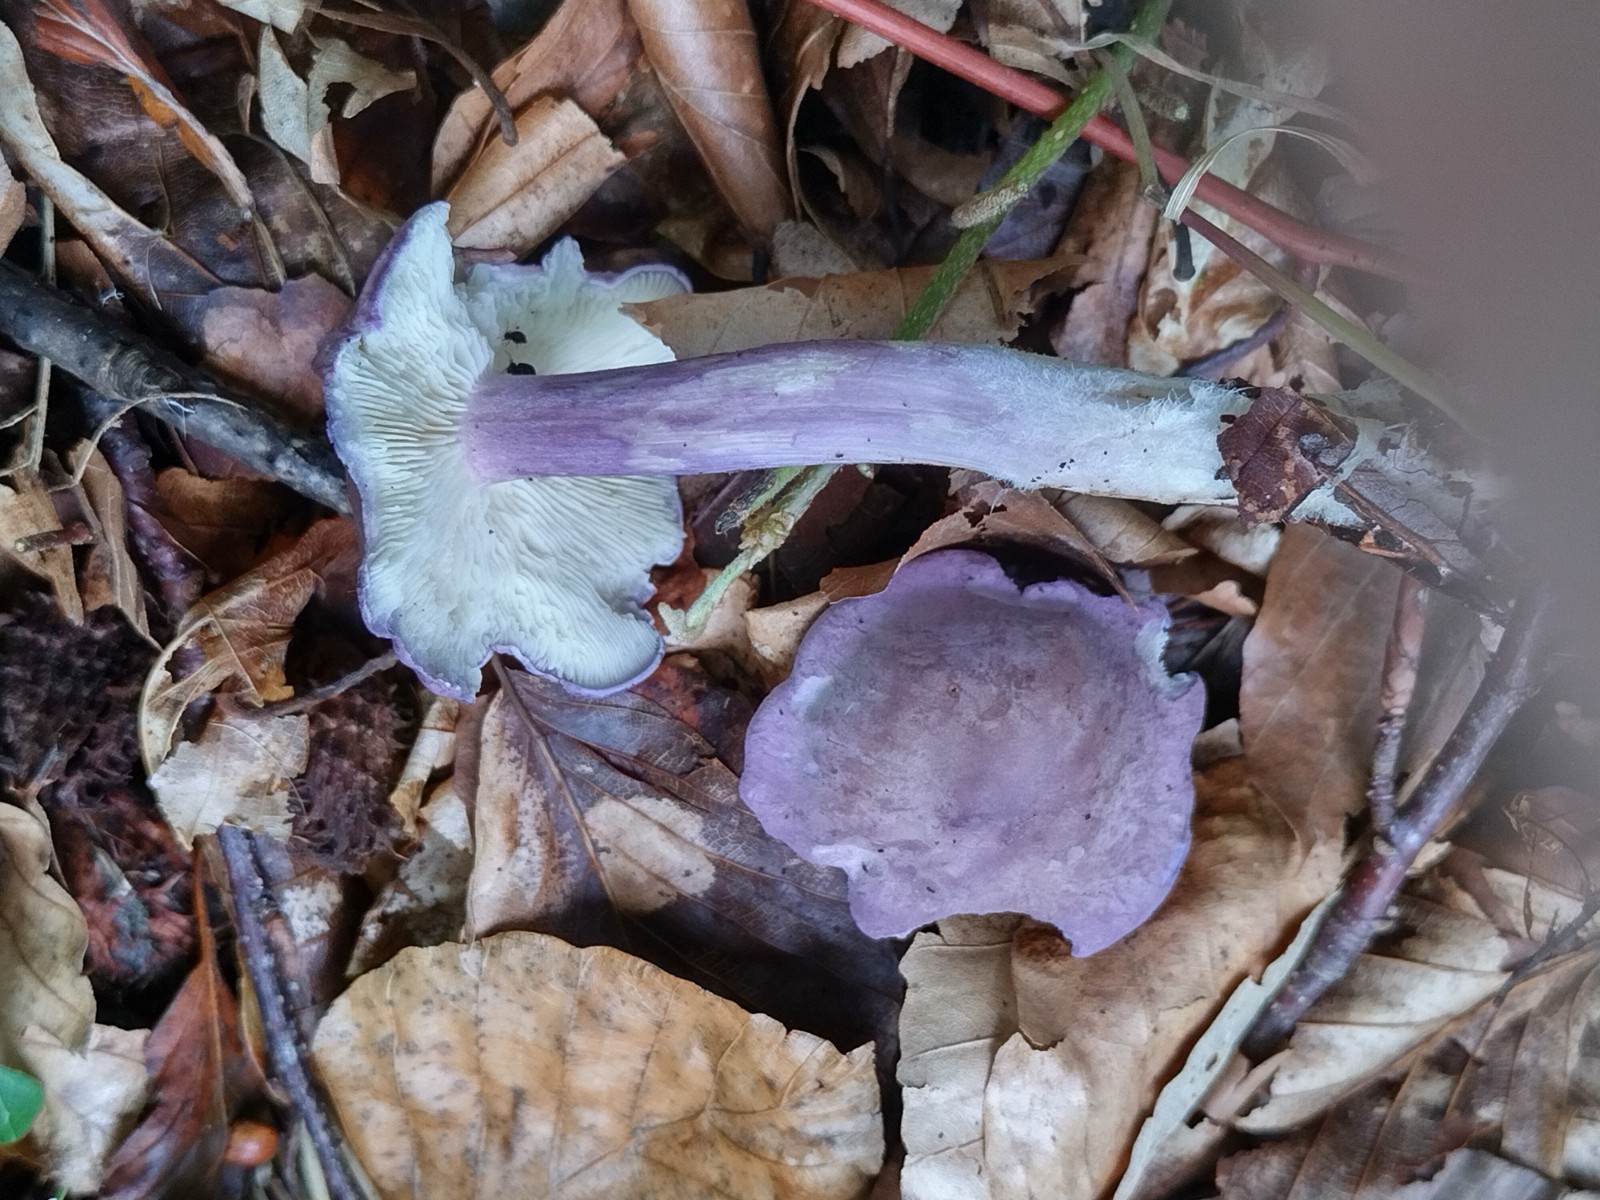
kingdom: Fungi
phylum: Basidiomycota
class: Agaricomycetes
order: Agaricales
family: Lyophyllaceae
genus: Calocybe
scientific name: Calocybe ionides
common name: violblå fagerhat
